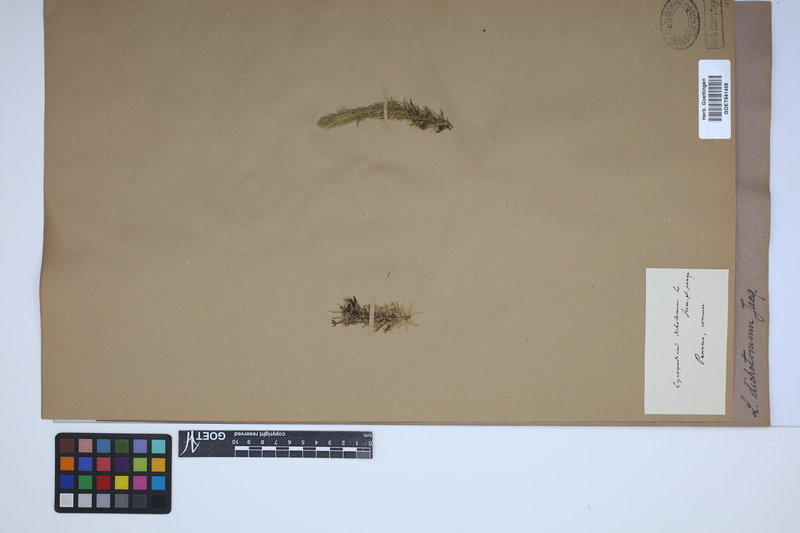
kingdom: Plantae
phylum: Tracheophyta
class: Lycopodiopsida
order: Lycopodiales
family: Lycopodiaceae
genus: Phlegmariurus
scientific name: Phlegmariurus dichotomus
